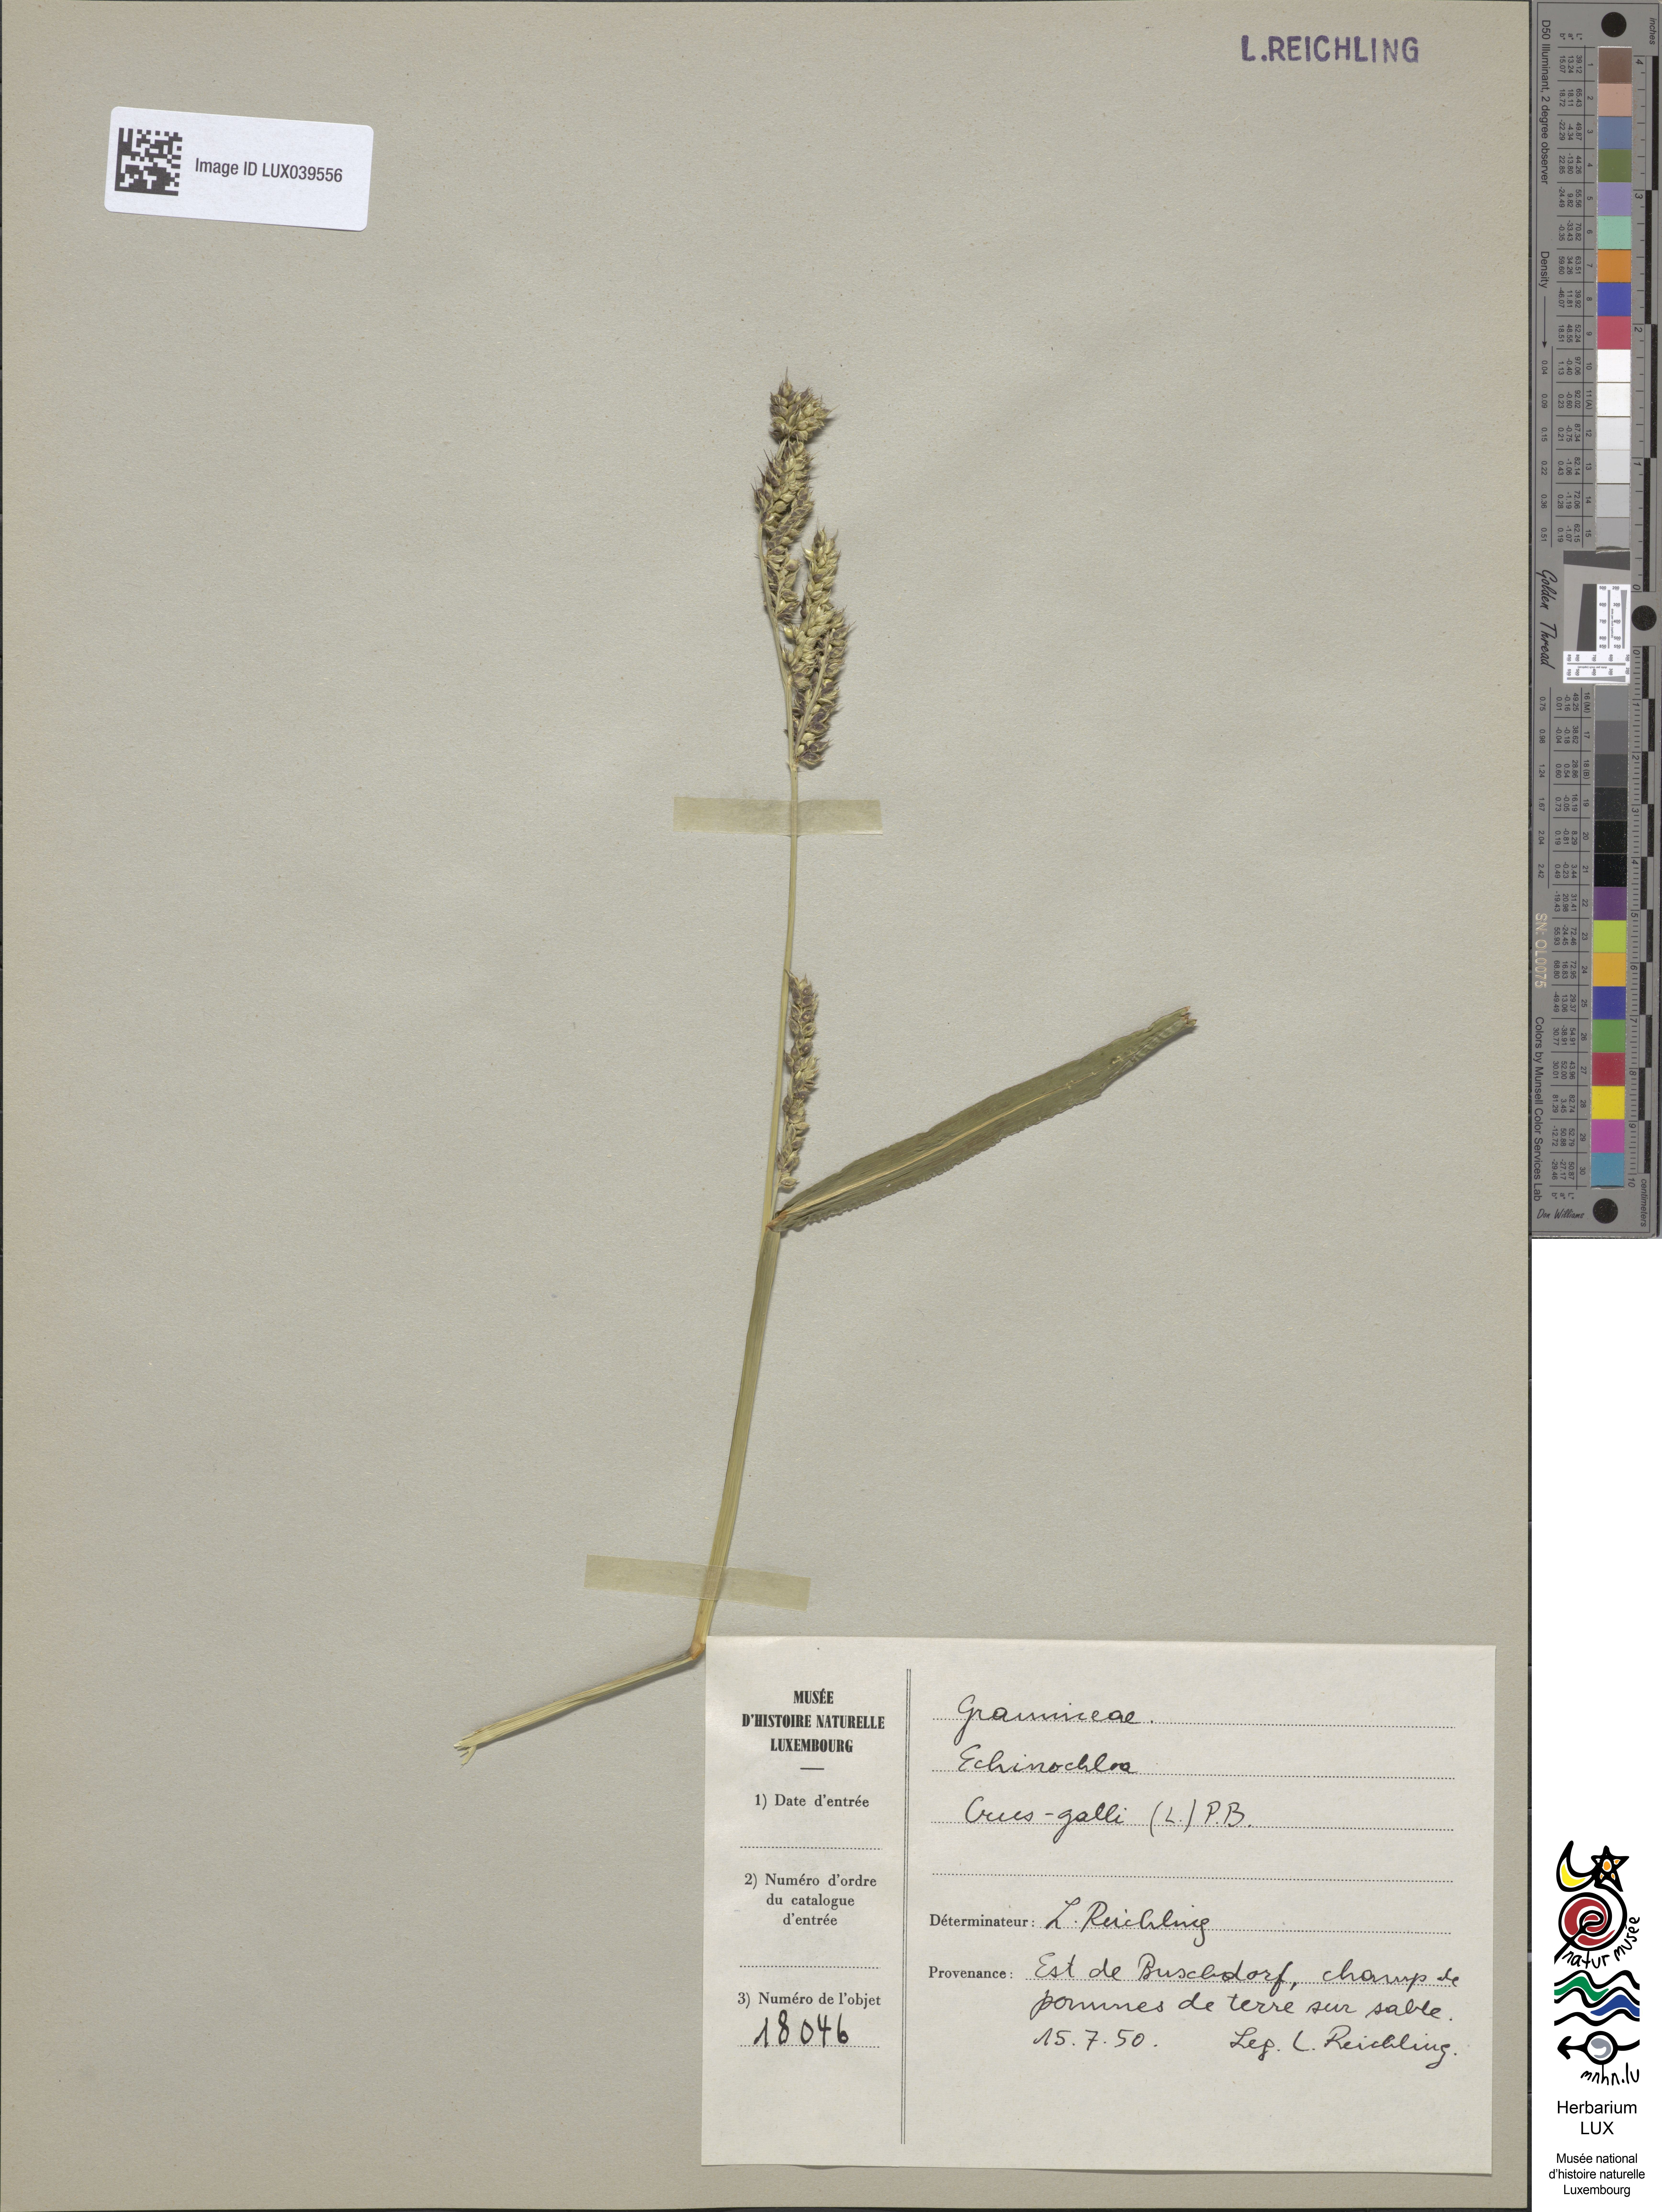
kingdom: Plantae
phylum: Tracheophyta
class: Liliopsida
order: Poales
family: Poaceae
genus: Echinochloa
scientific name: Echinochloa crus-galli
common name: Cockspur
